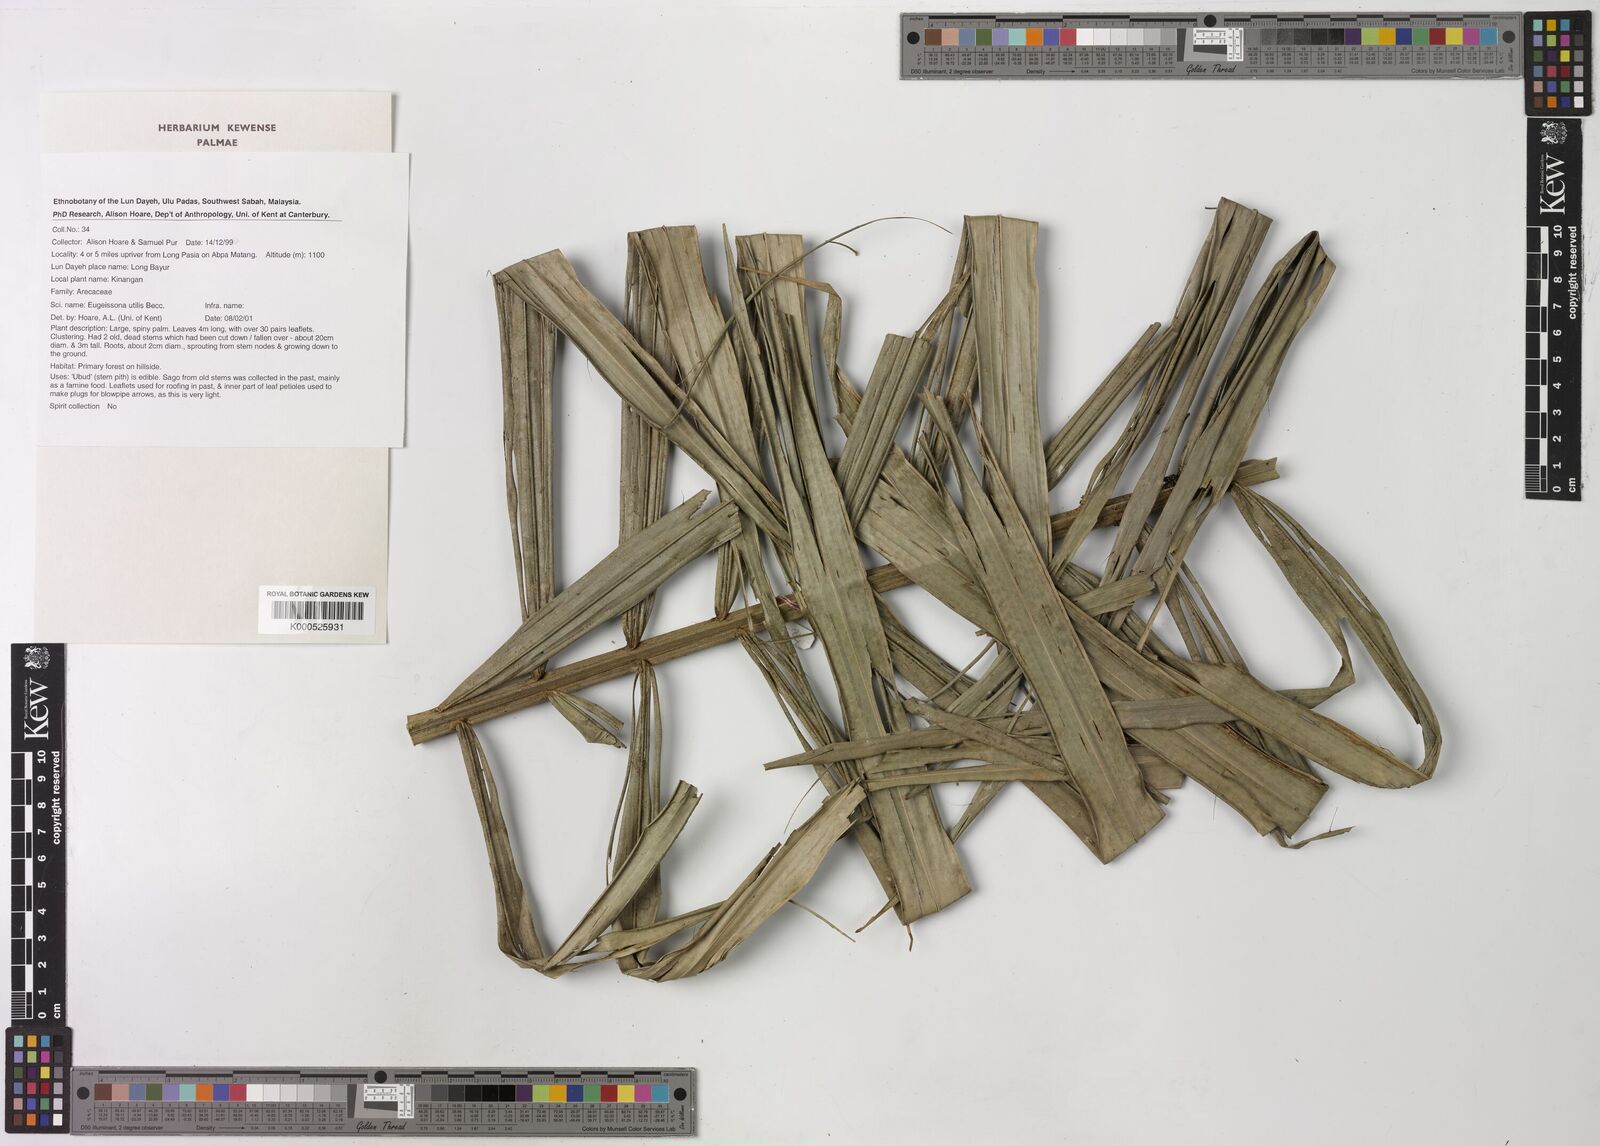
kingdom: Plantae
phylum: Tracheophyta
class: Liliopsida
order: Arecales
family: Arecaceae
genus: Eugeissona
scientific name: Eugeissona utilis
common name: Wild bornean sago palm
